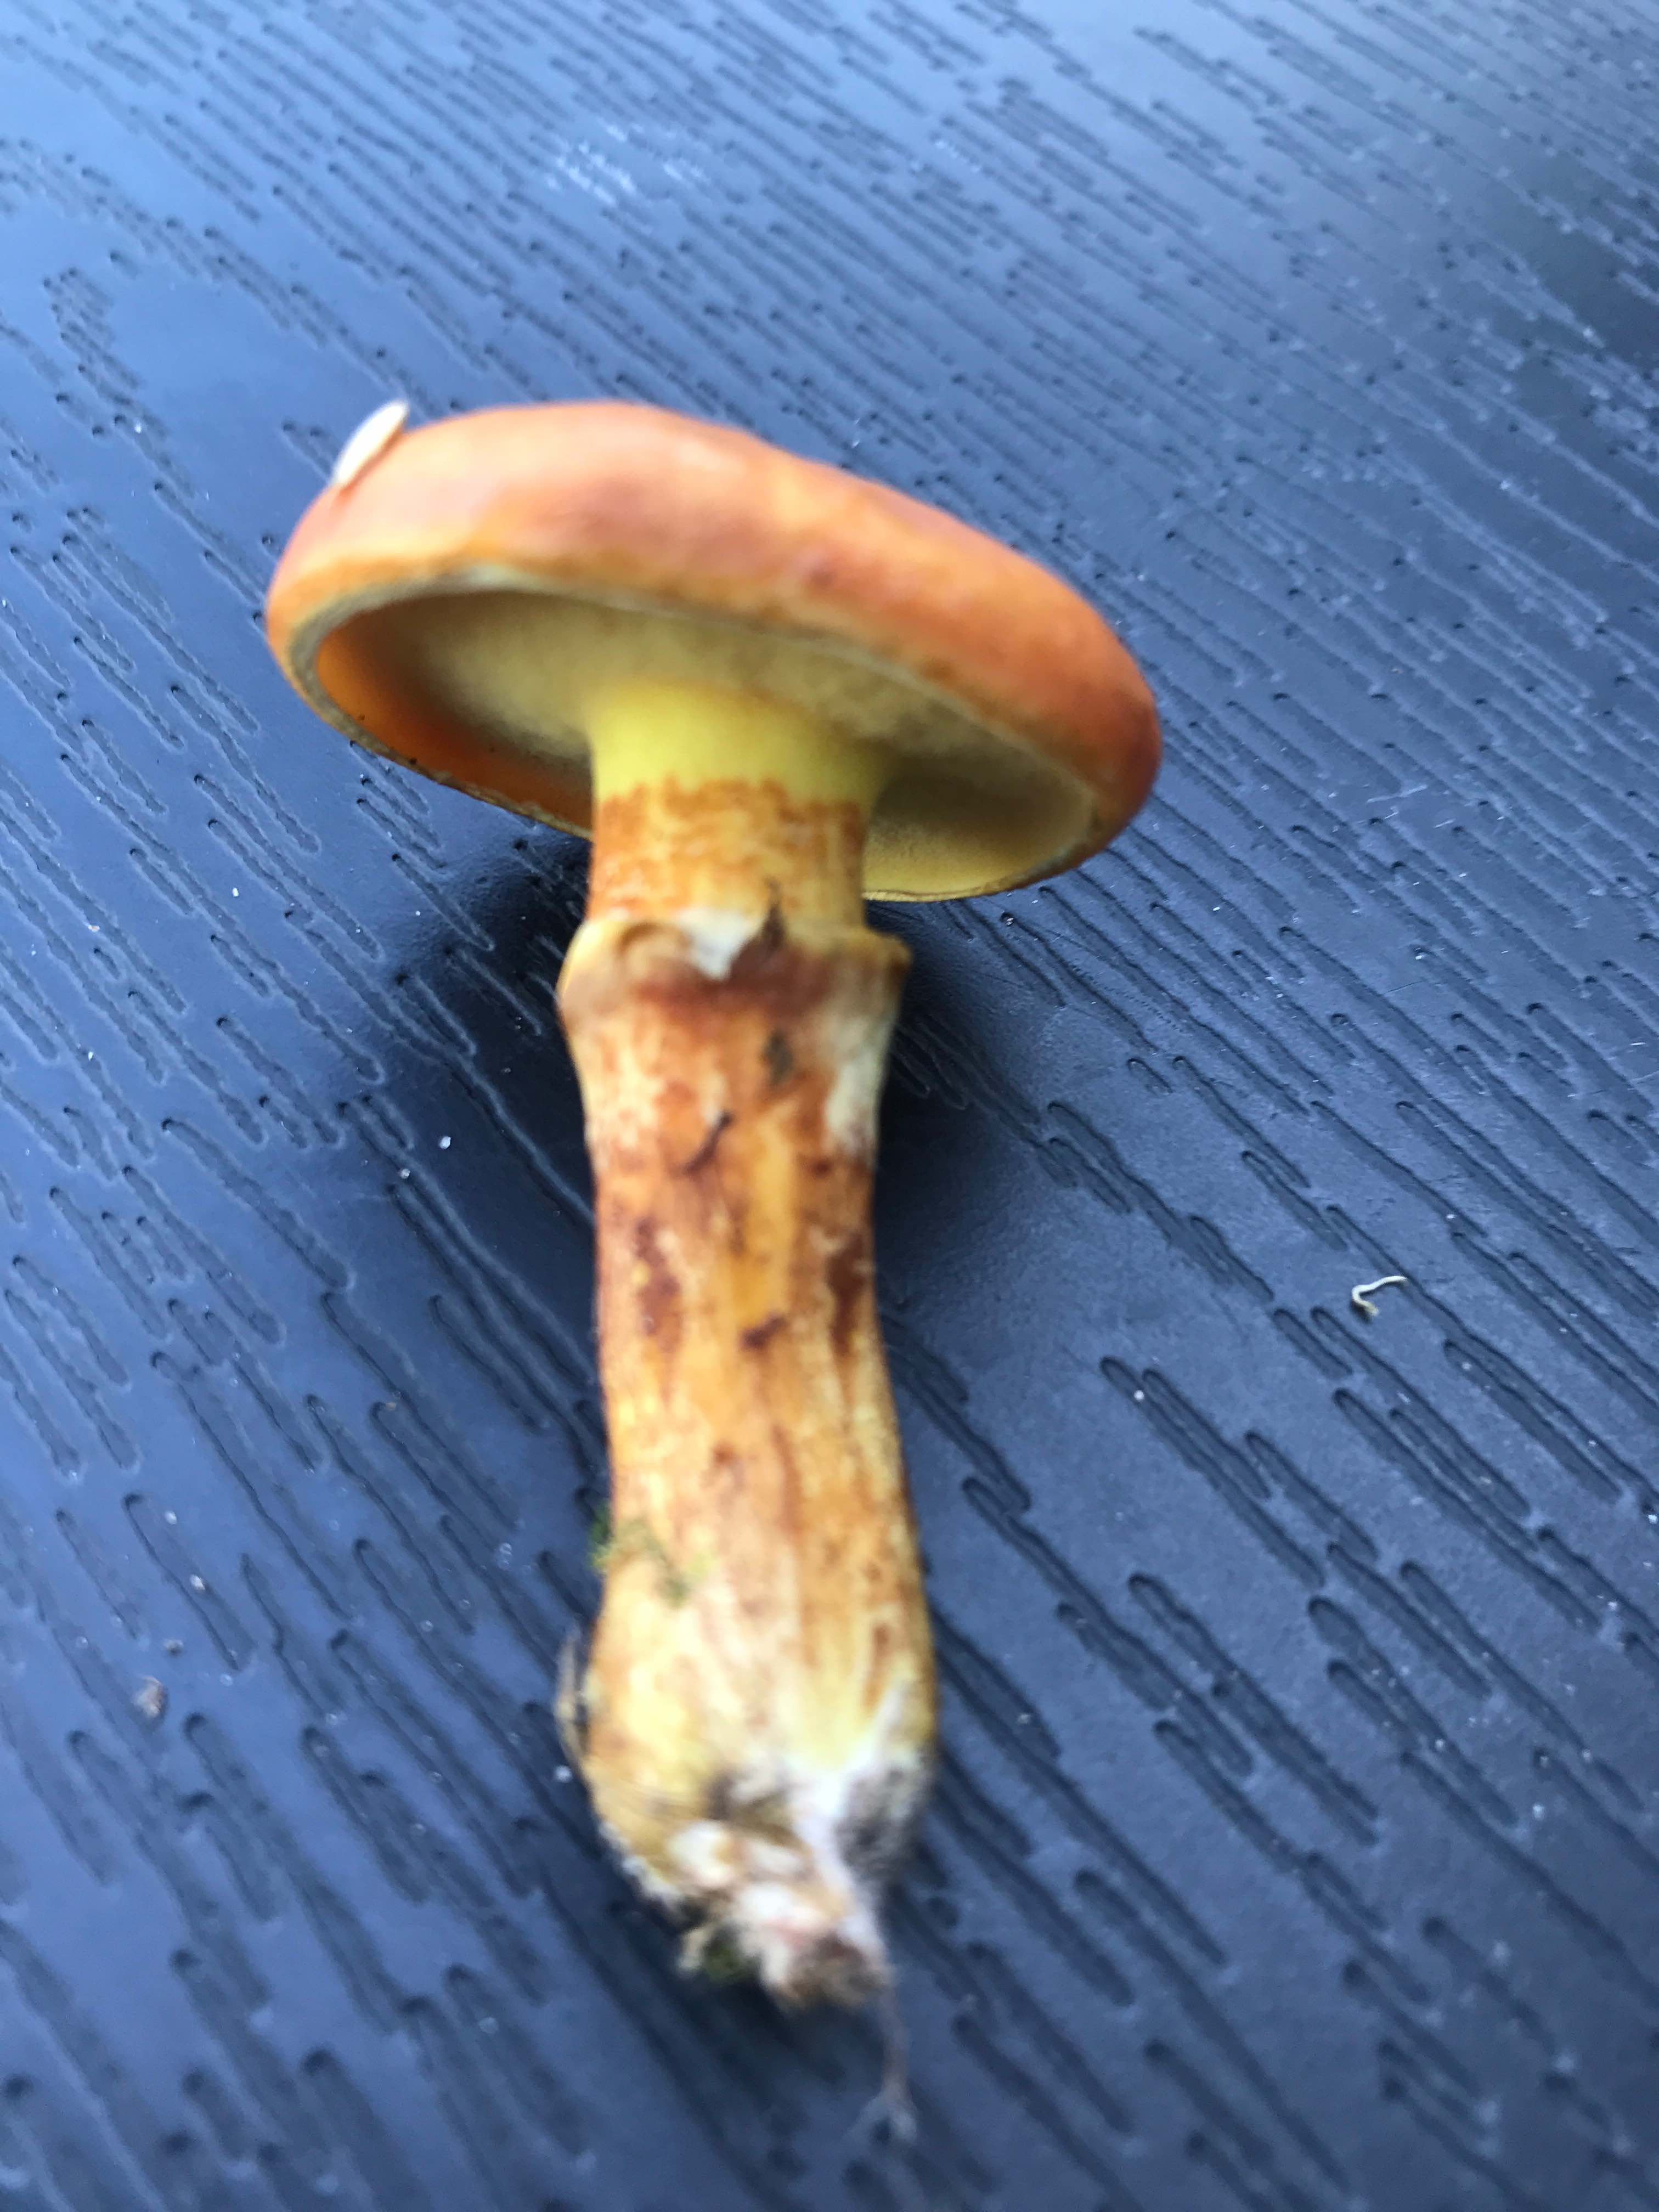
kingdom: Fungi
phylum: Basidiomycota
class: Agaricomycetes
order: Boletales
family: Suillaceae
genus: Suillus
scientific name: Suillus grevillei
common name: lærke-slimrørhat
